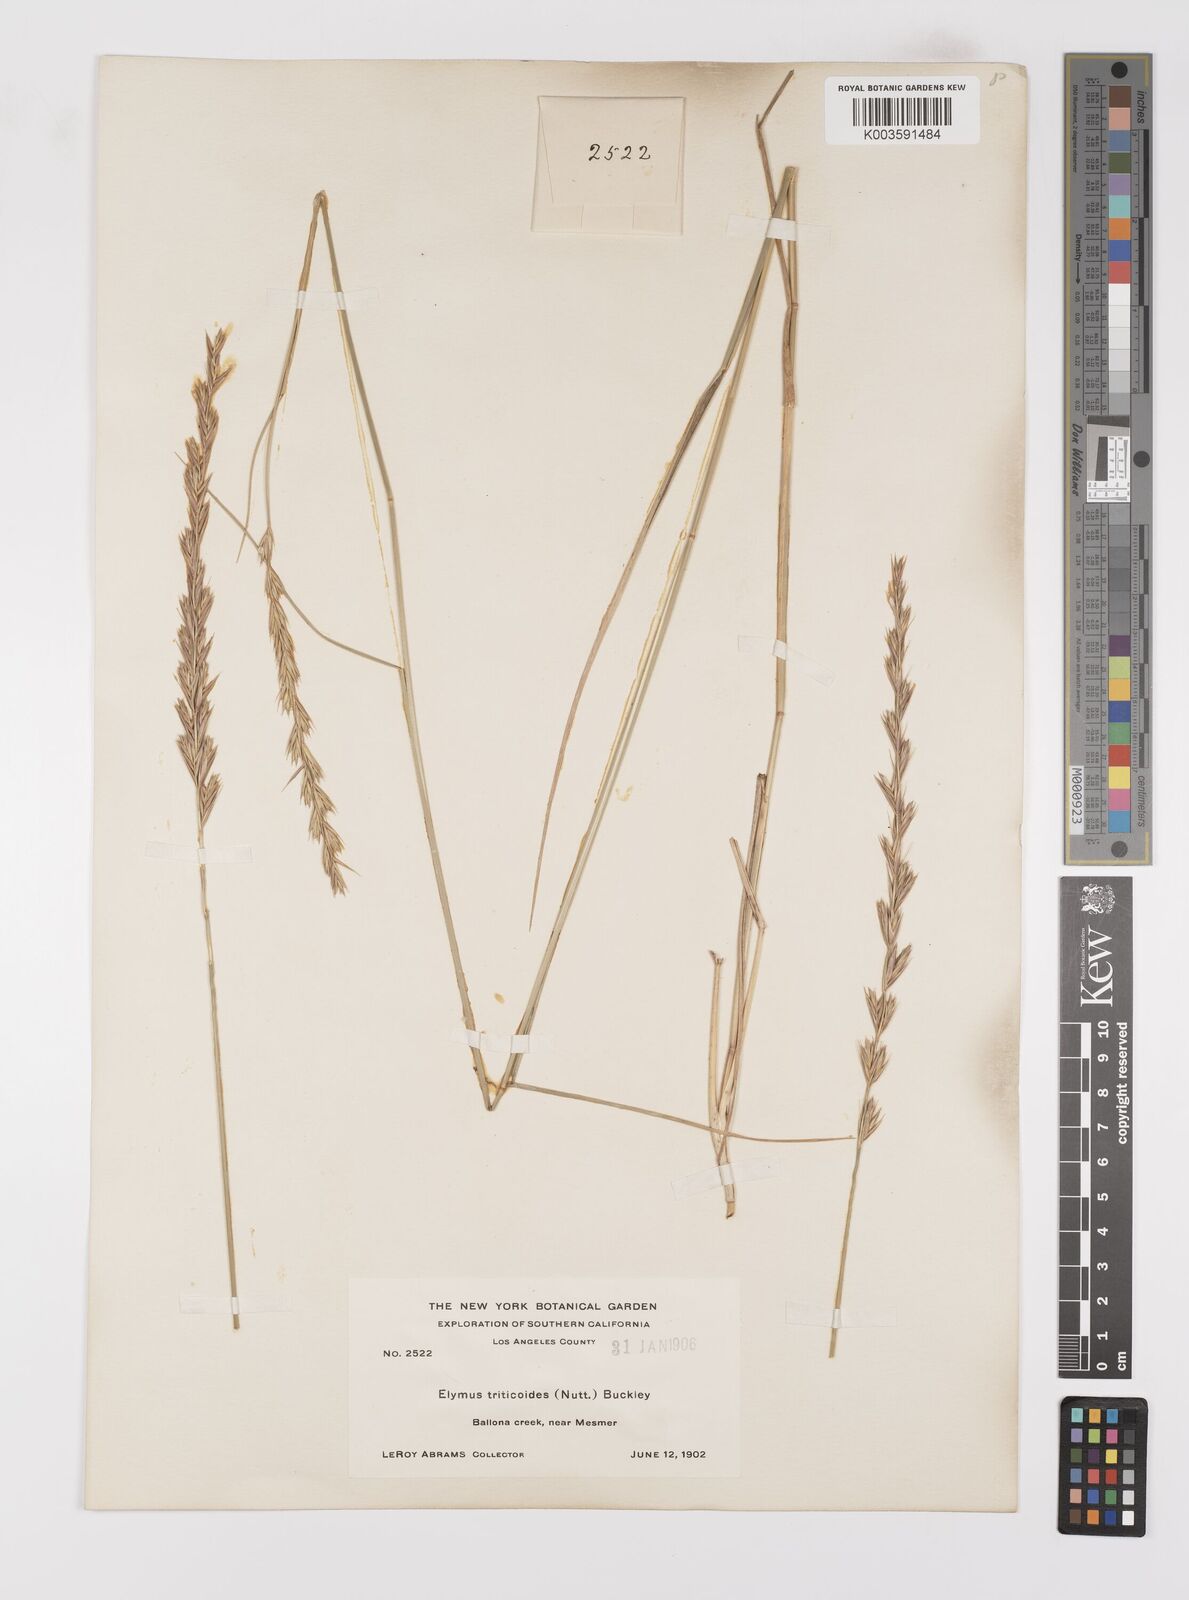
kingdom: Plantae
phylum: Tracheophyta
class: Liliopsida
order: Poales
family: Poaceae
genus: Leymus
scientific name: Leymus triticoides
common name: Beardless wild rye
